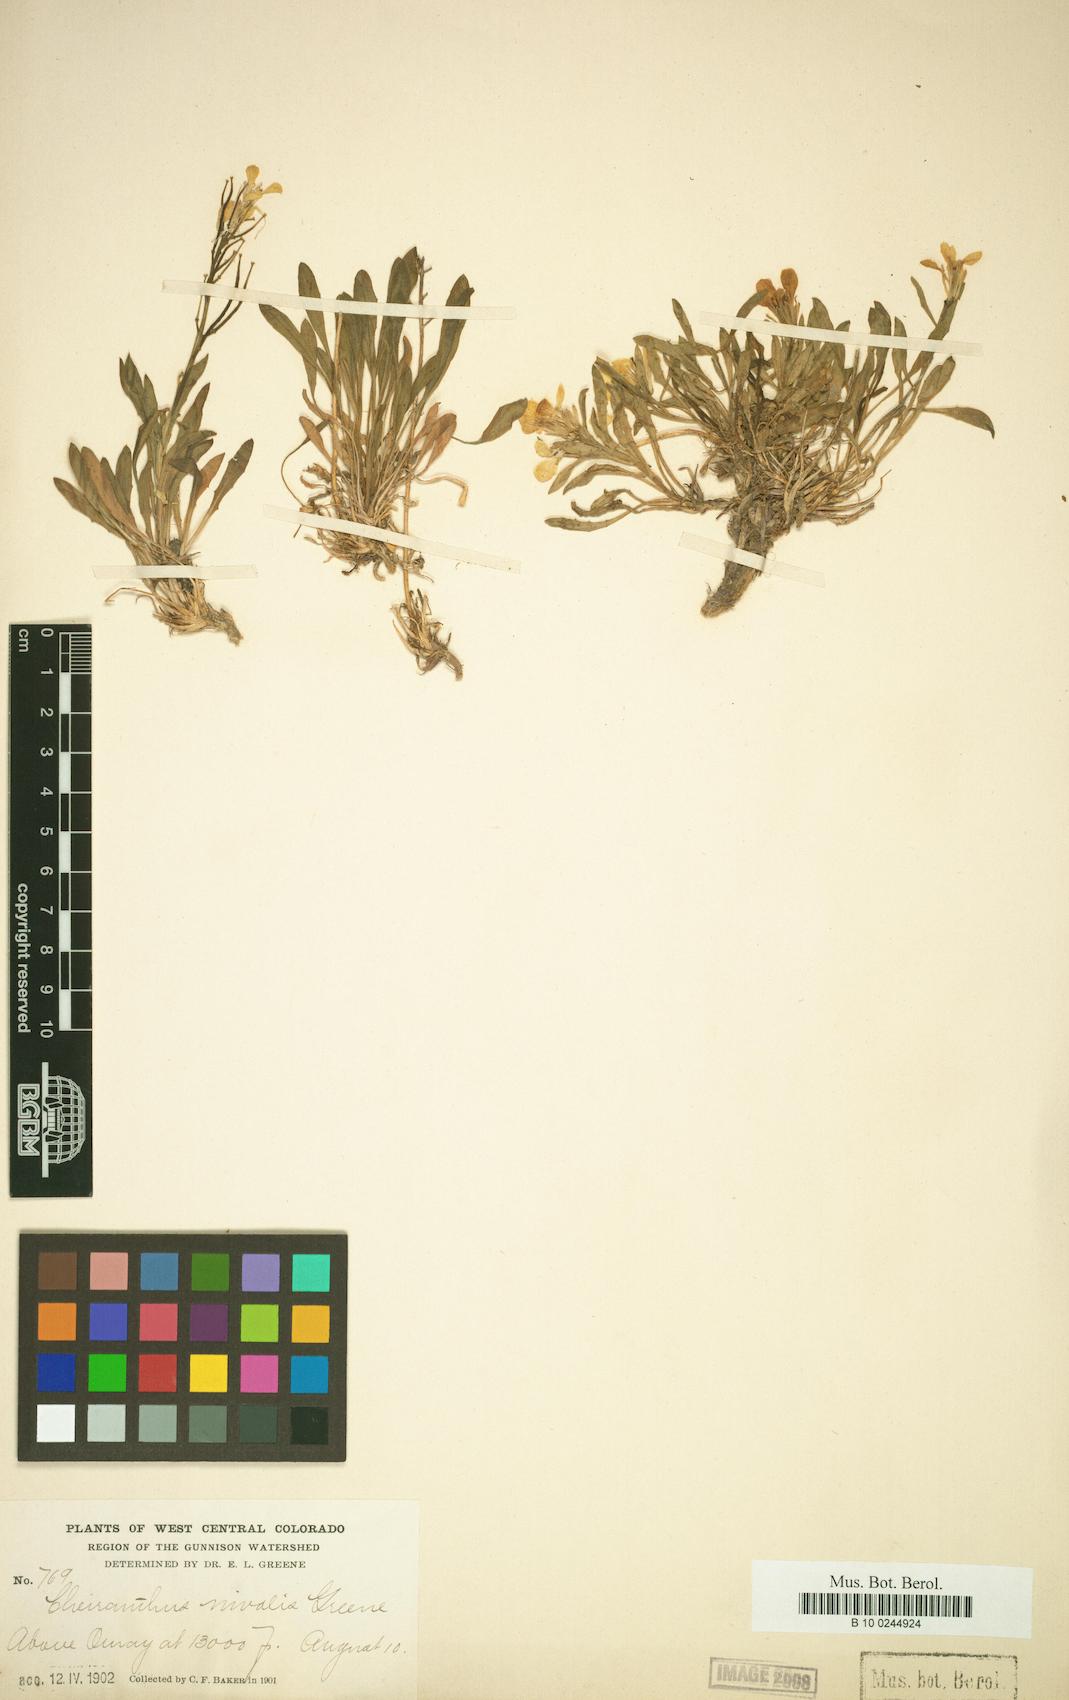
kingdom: Plantae
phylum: Tracheophyta
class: Magnoliopsida
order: Brassicales
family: Brassicaceae
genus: Erysimum
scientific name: Erysimum capitatum
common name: Western wallflower
